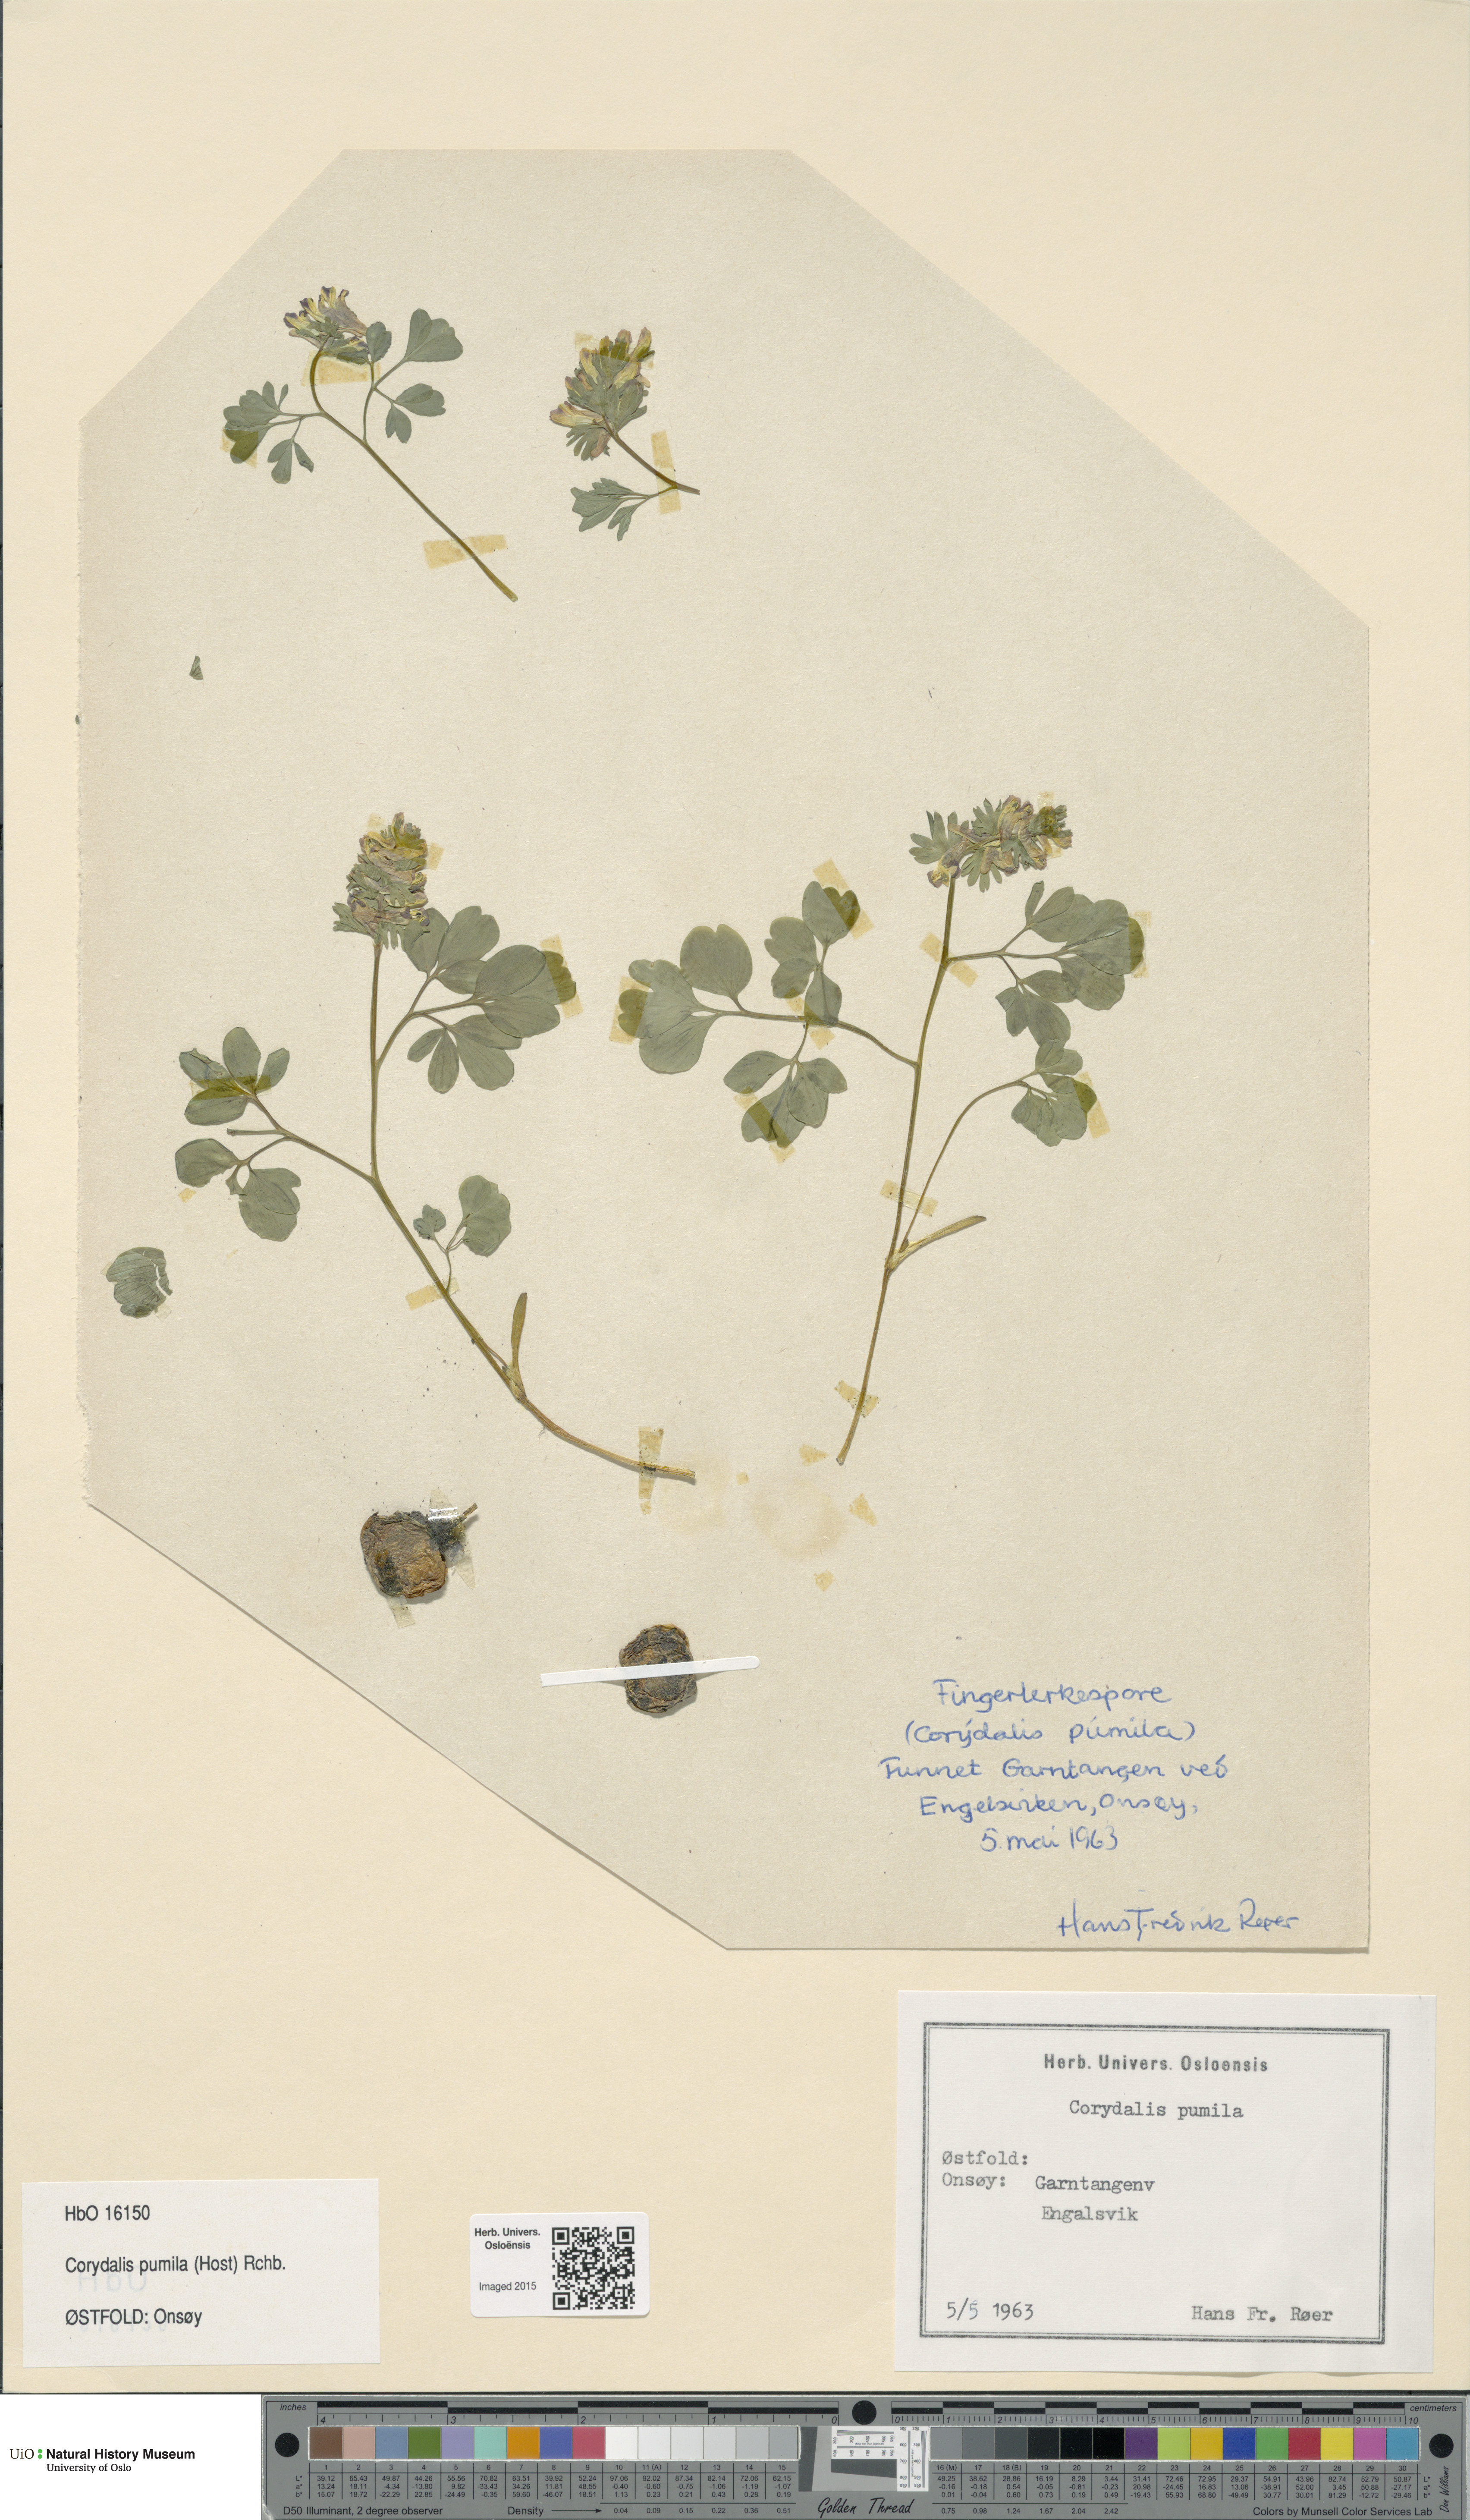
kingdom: Plantae
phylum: Tracheophyta
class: Magnoliopsida
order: Ranunculales
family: Papaveraceae
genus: Corydalis
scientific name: Corydalis pumila
